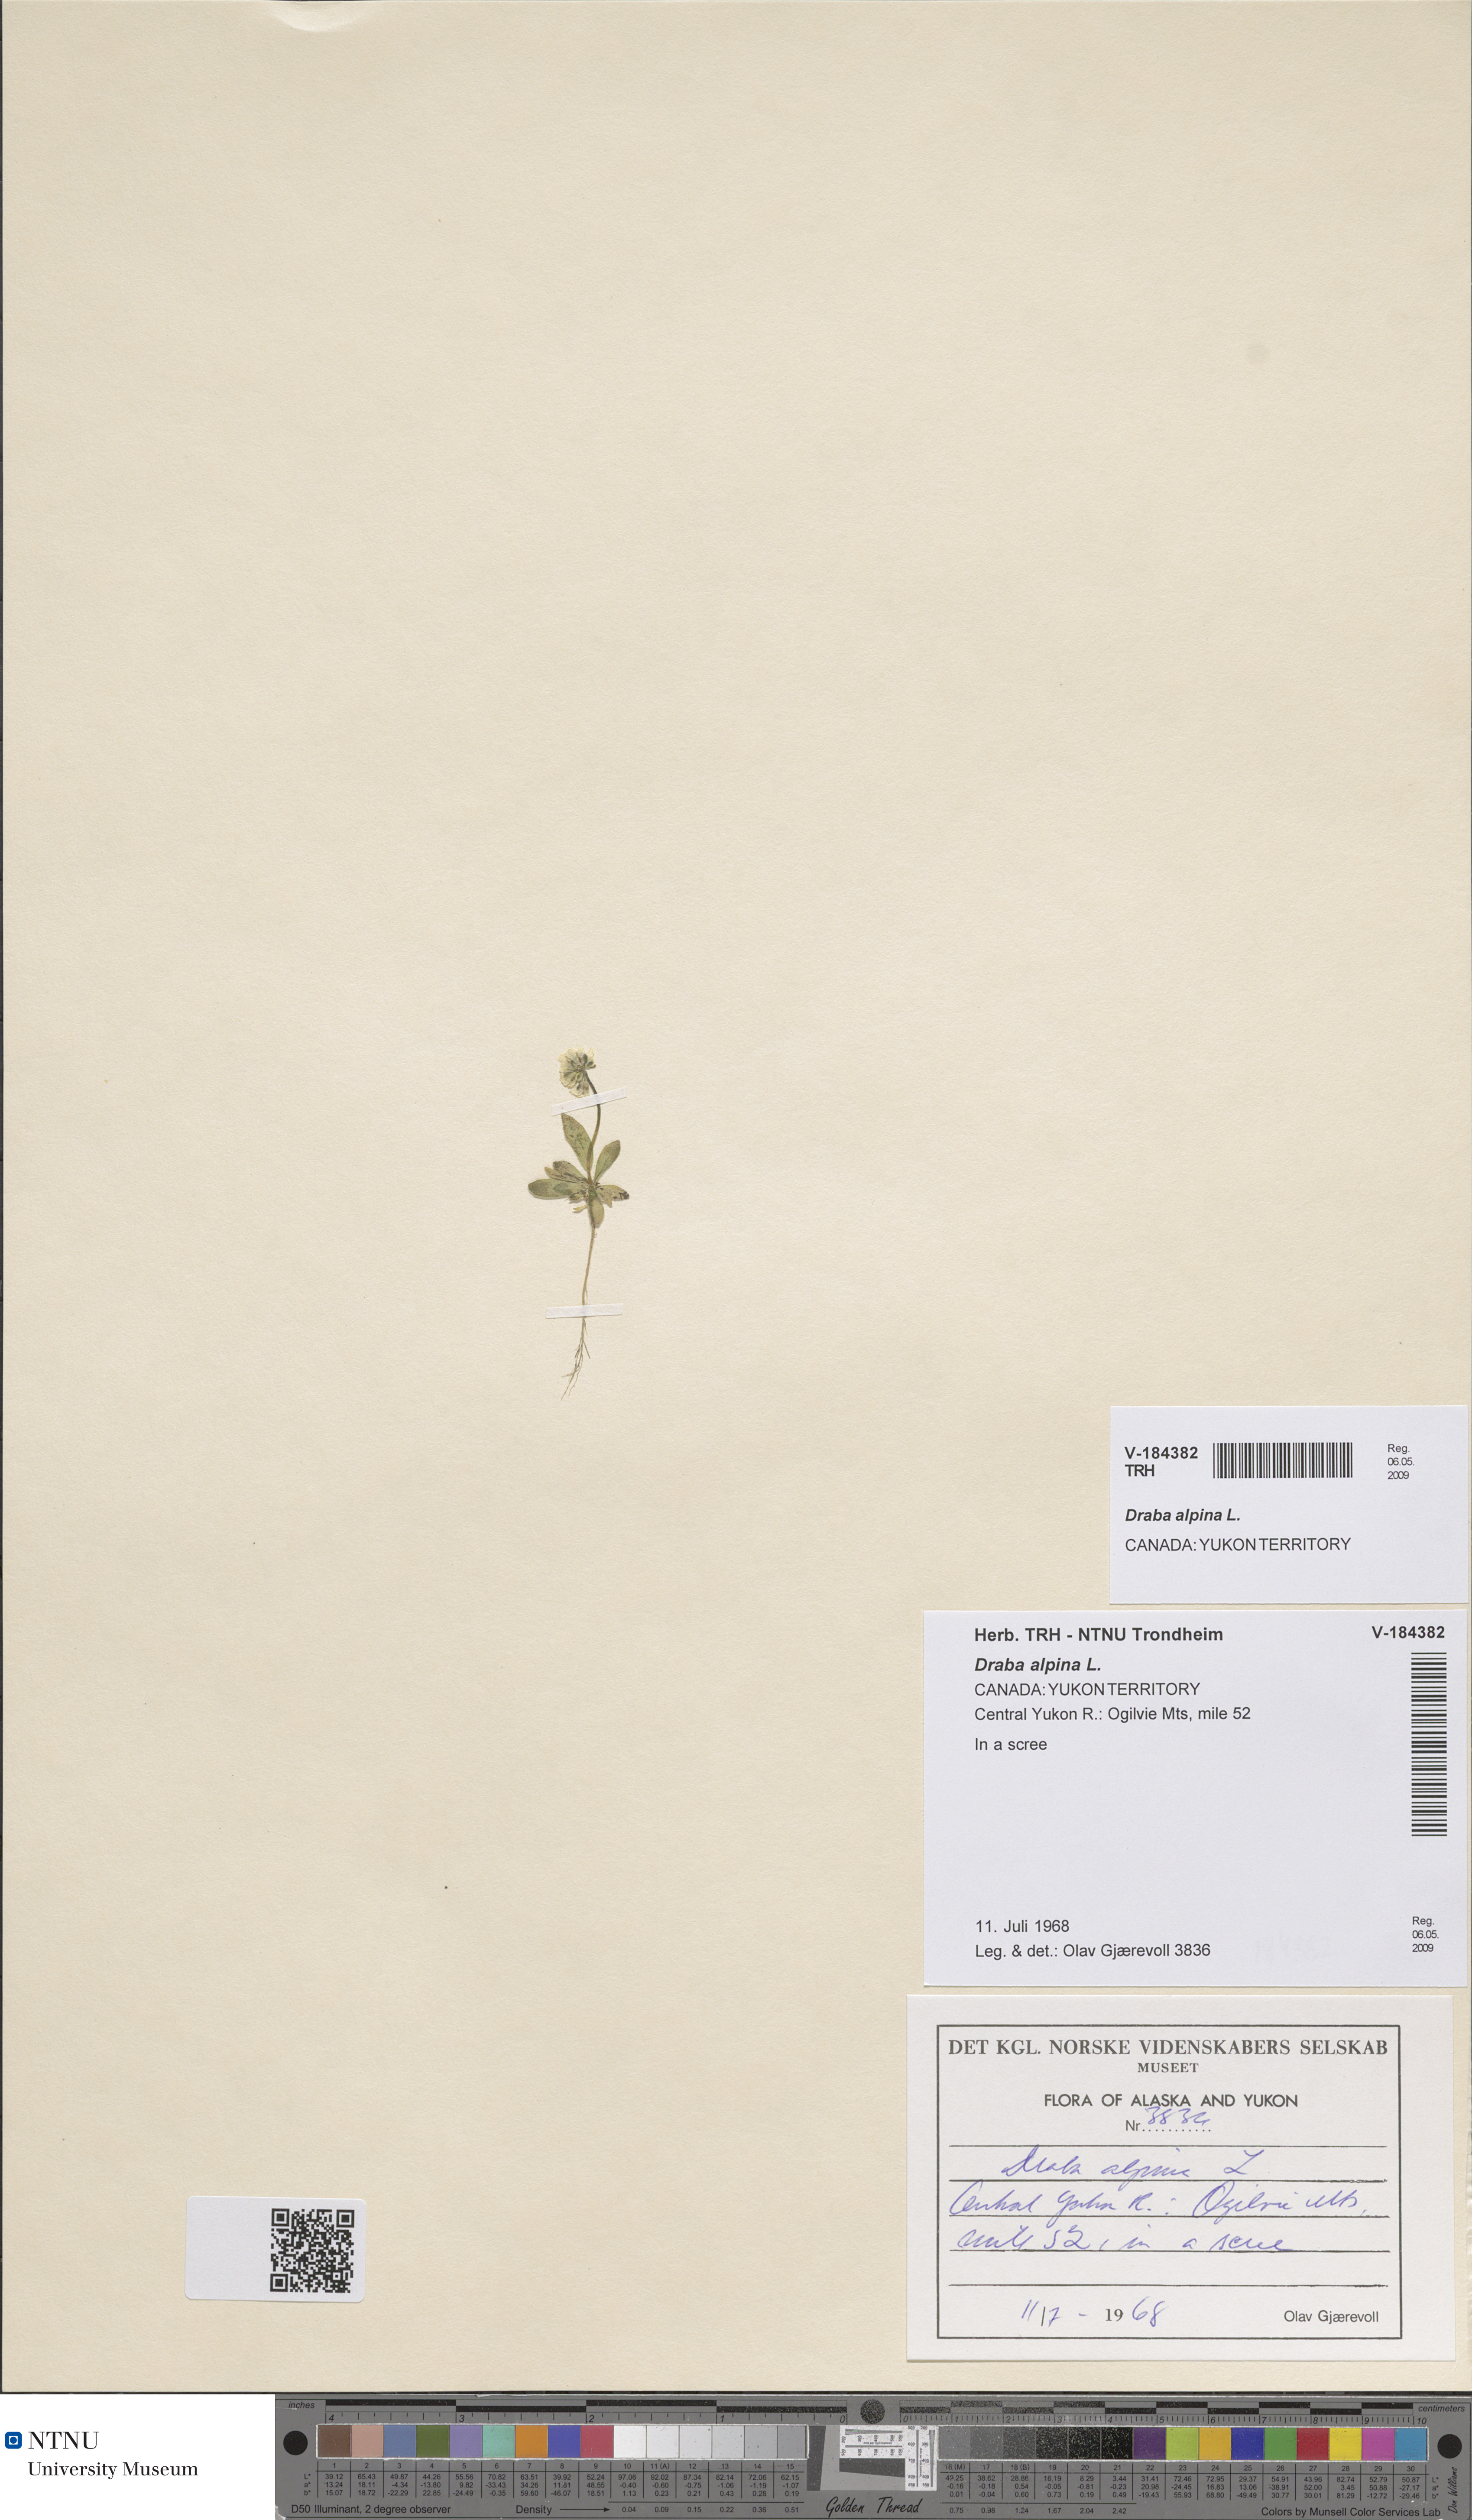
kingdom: Plantae
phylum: Tracheophyta
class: Magnoliopsida
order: Brassicales
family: Brassicaceae
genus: Draba
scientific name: Draba alpina
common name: Alpine draba
